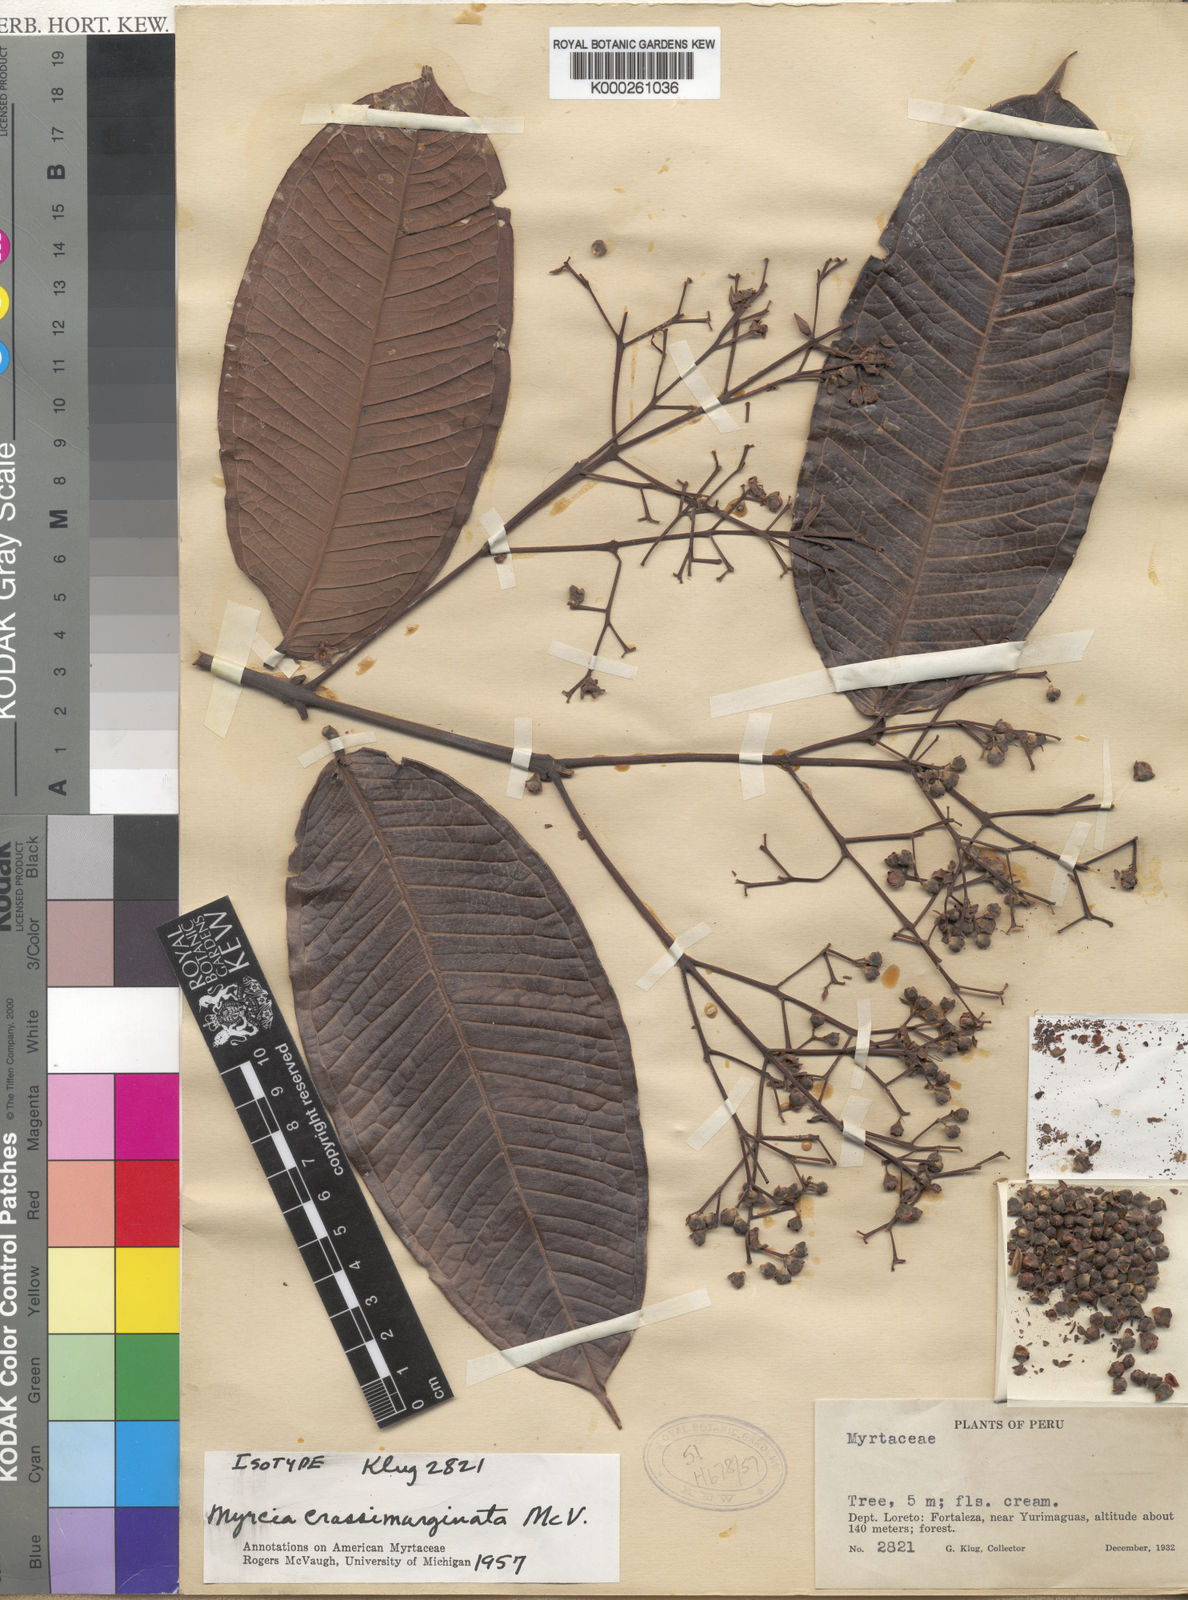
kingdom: Plantae
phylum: Tracheophyta
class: Magnoliopsida
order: Myrtales
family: Myrtaceae
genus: Myrcia
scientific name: Myrcia crassimarginata
